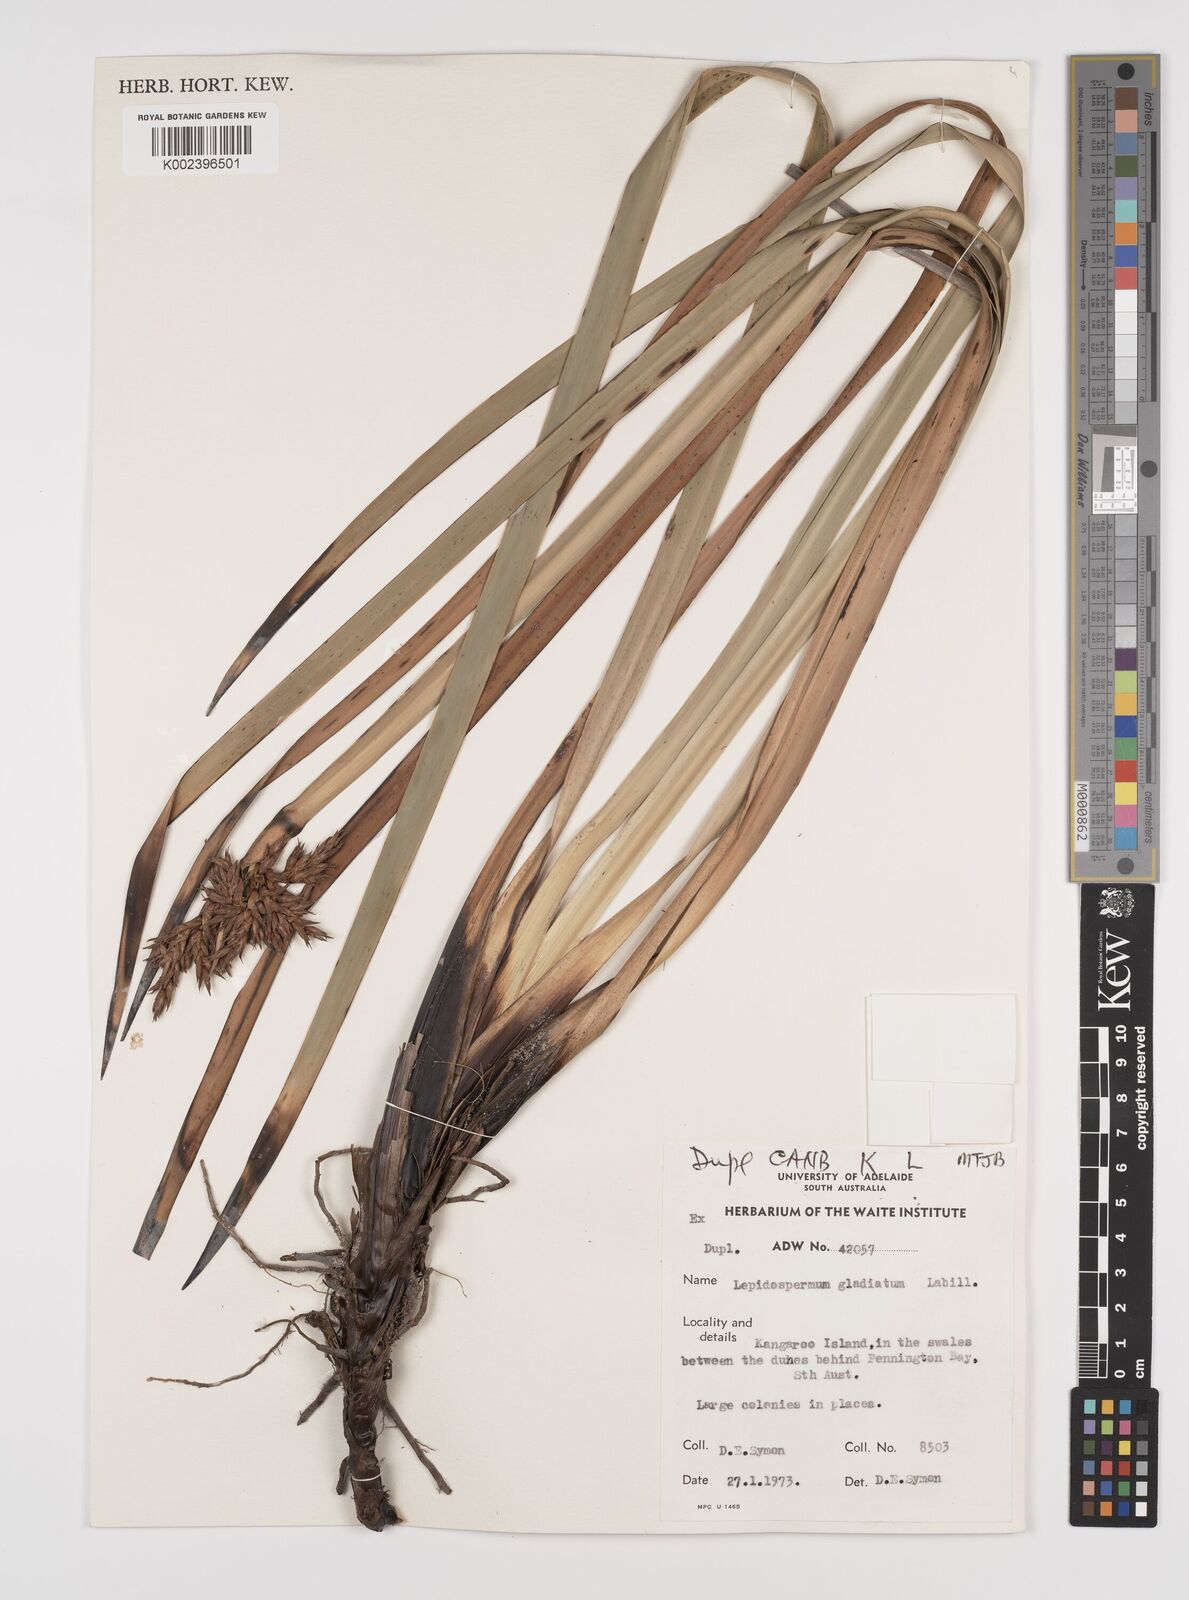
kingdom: Plantae
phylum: Tracheophyta
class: Liliopsida
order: Poales
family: Cyperaceae
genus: Lepidosperma
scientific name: Lepidosperma gladiatum
